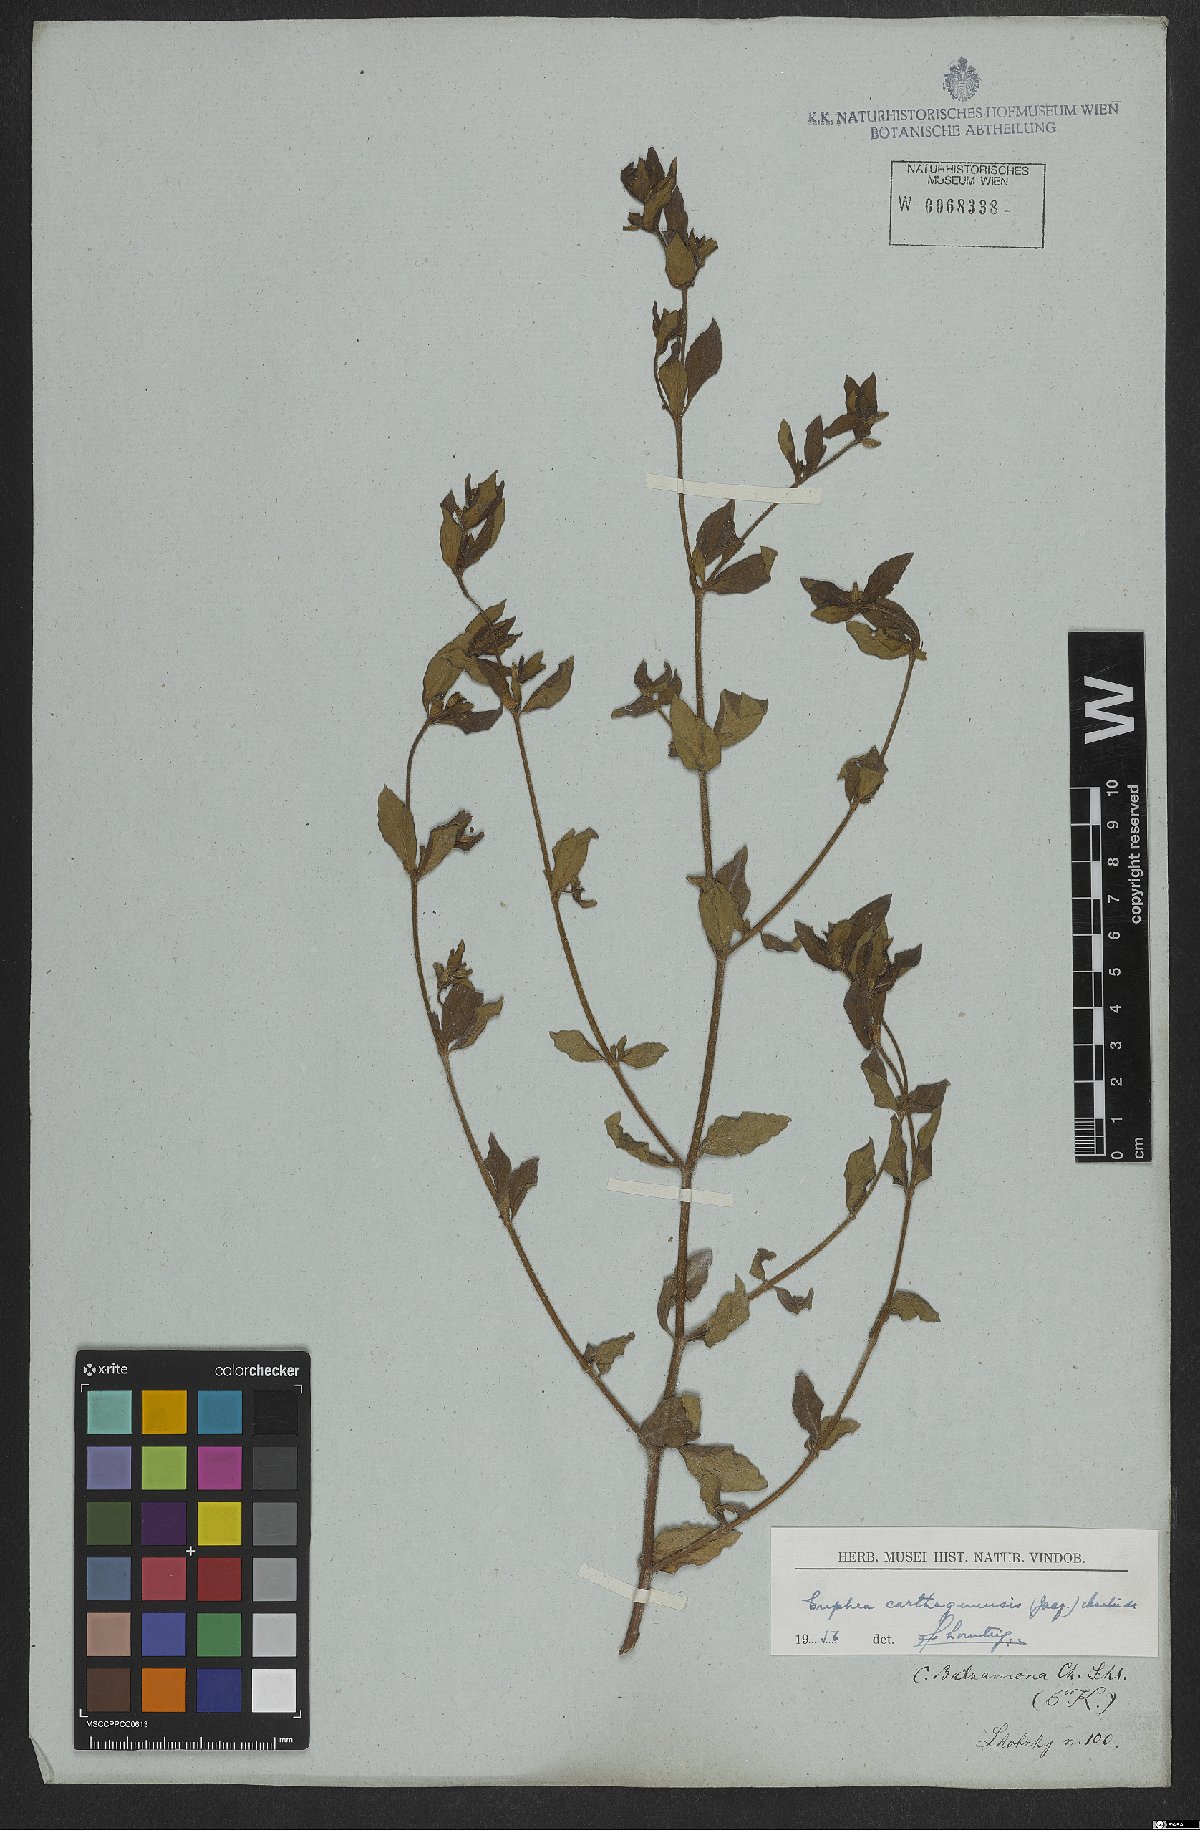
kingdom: Plantae
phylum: Tracheophyta
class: Magnoliopsida
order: Myrtales
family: Lythraceae
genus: Cuphea
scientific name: Cuphea carthagenensis
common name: Colombian waxweed
